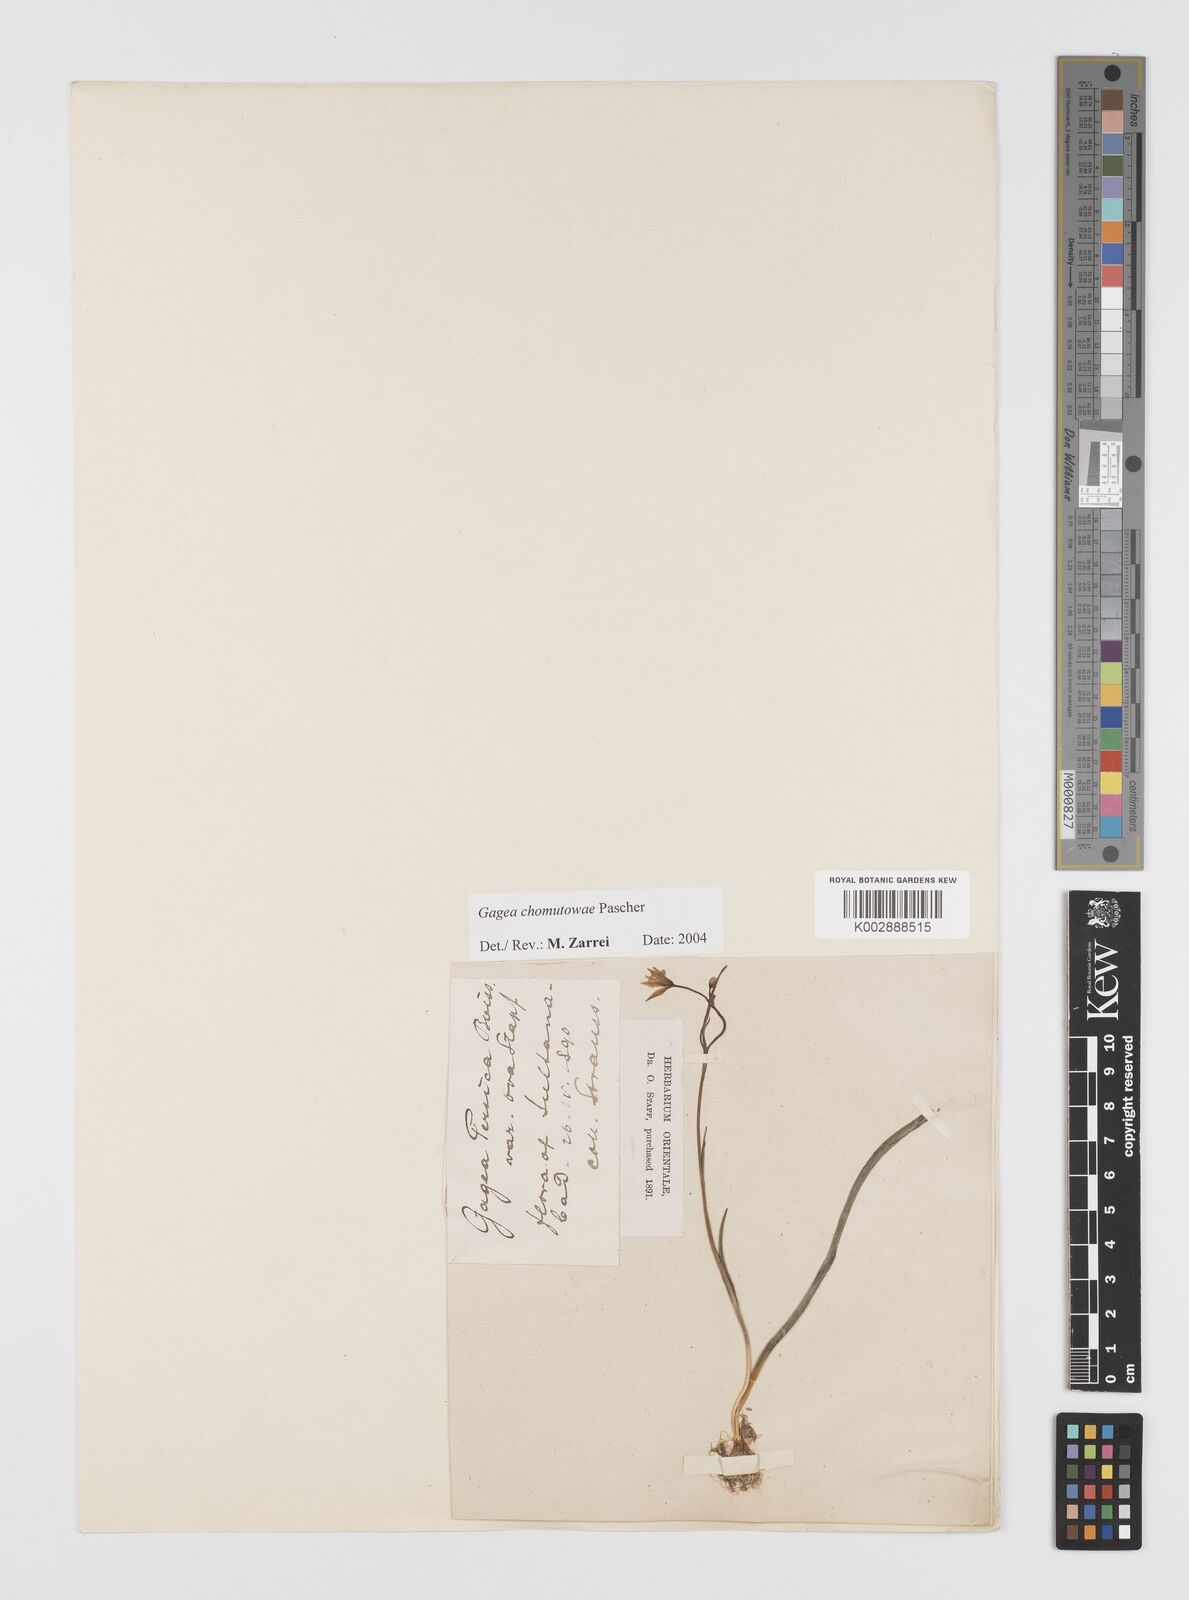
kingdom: Plantae
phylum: Tracheophyta
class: Liliopsida
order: Liliales
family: Liliaceae
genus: Gagea
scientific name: Gagea chomutovae
